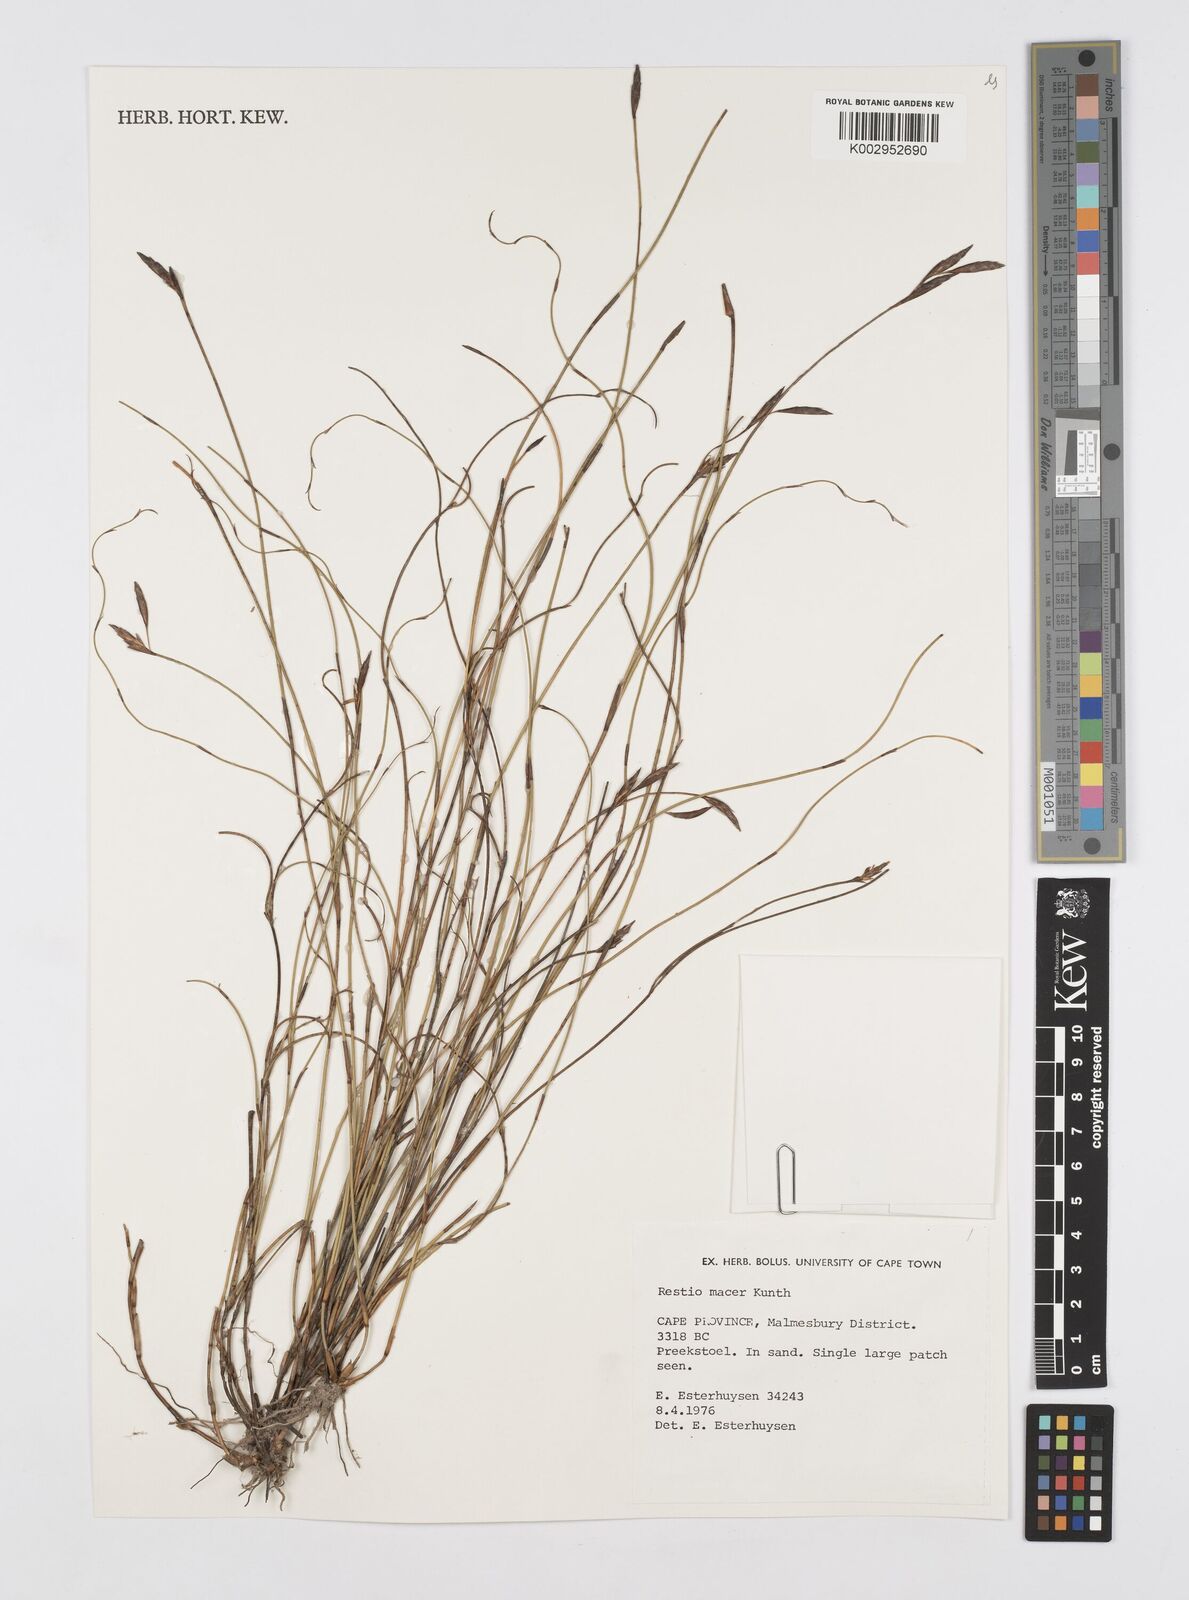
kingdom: Plantae
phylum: Tracheophyta
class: Liliopsida
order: Poales
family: Restionaceae
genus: Restio
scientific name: Restio macer
